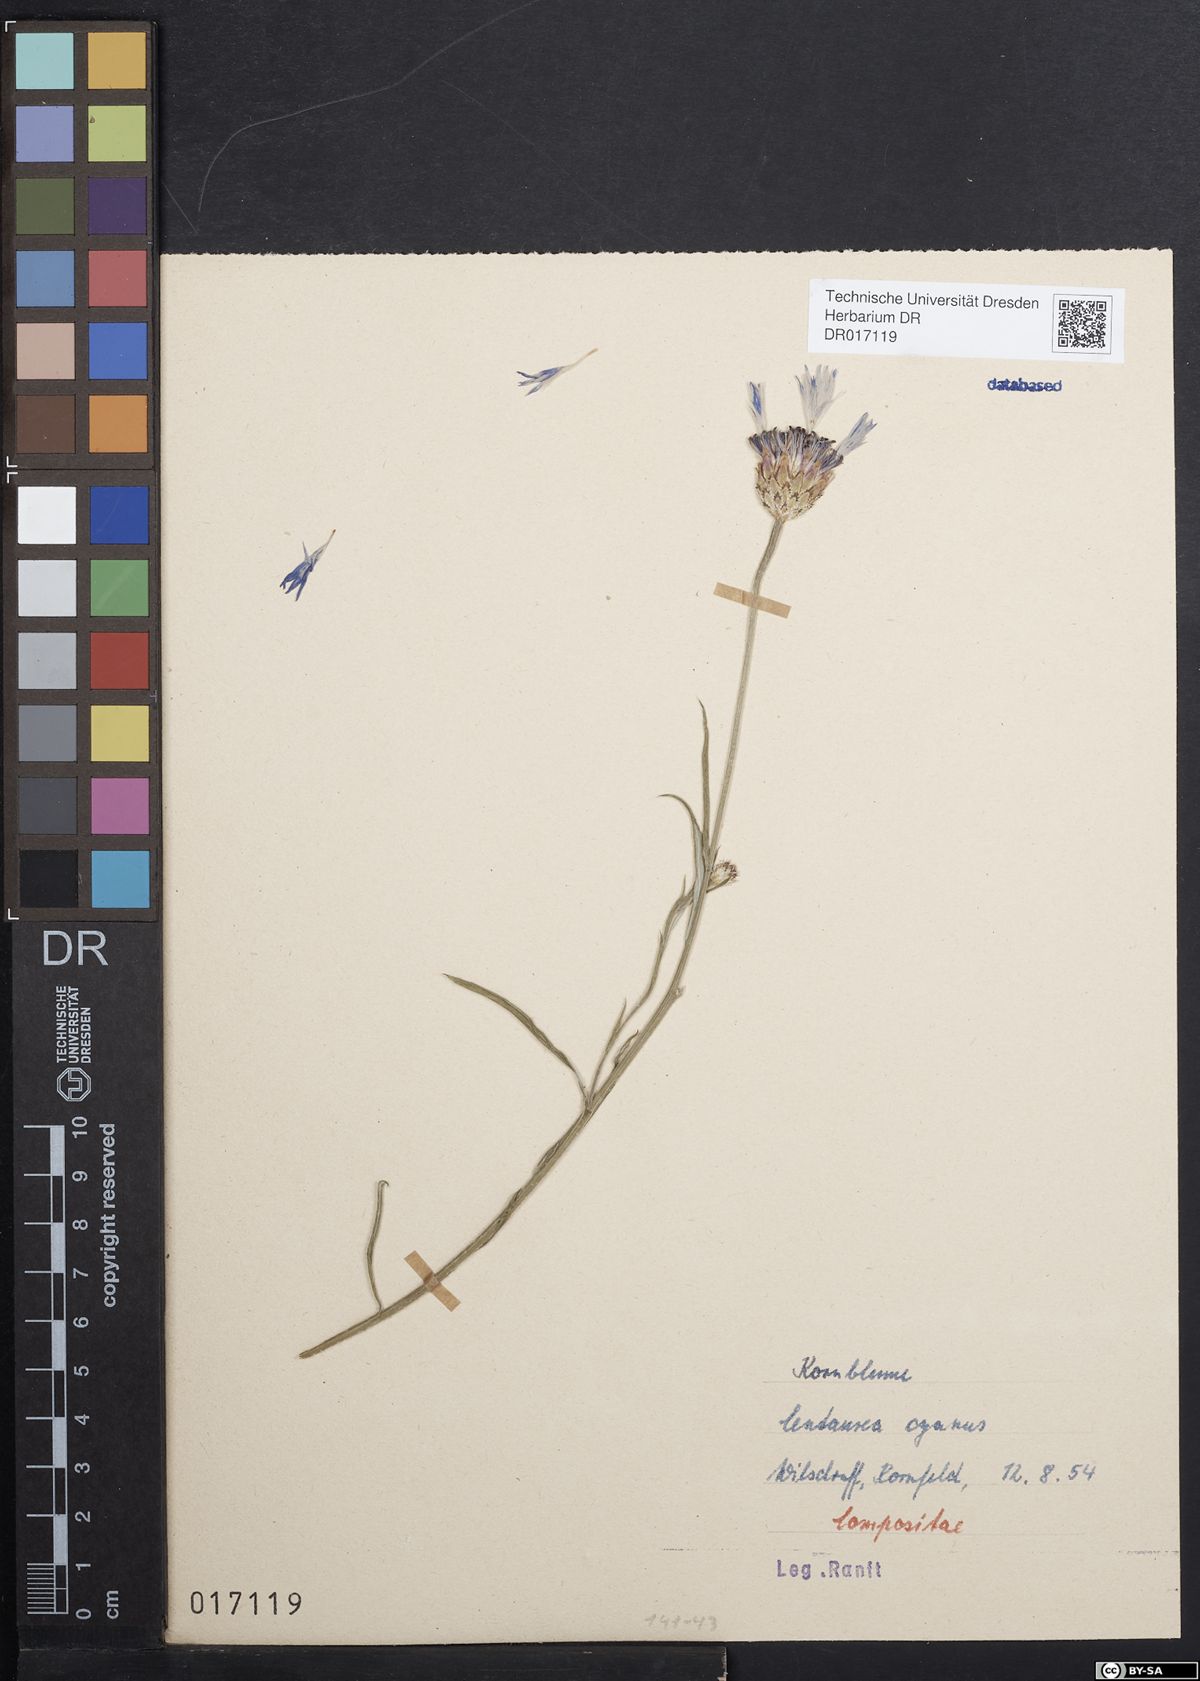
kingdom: Plantae
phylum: Tracheophyta
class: Magnoliopsida
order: Asterales
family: Asteraceae
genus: Centaurea
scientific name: Centaurea cyanus
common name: Cornflower
